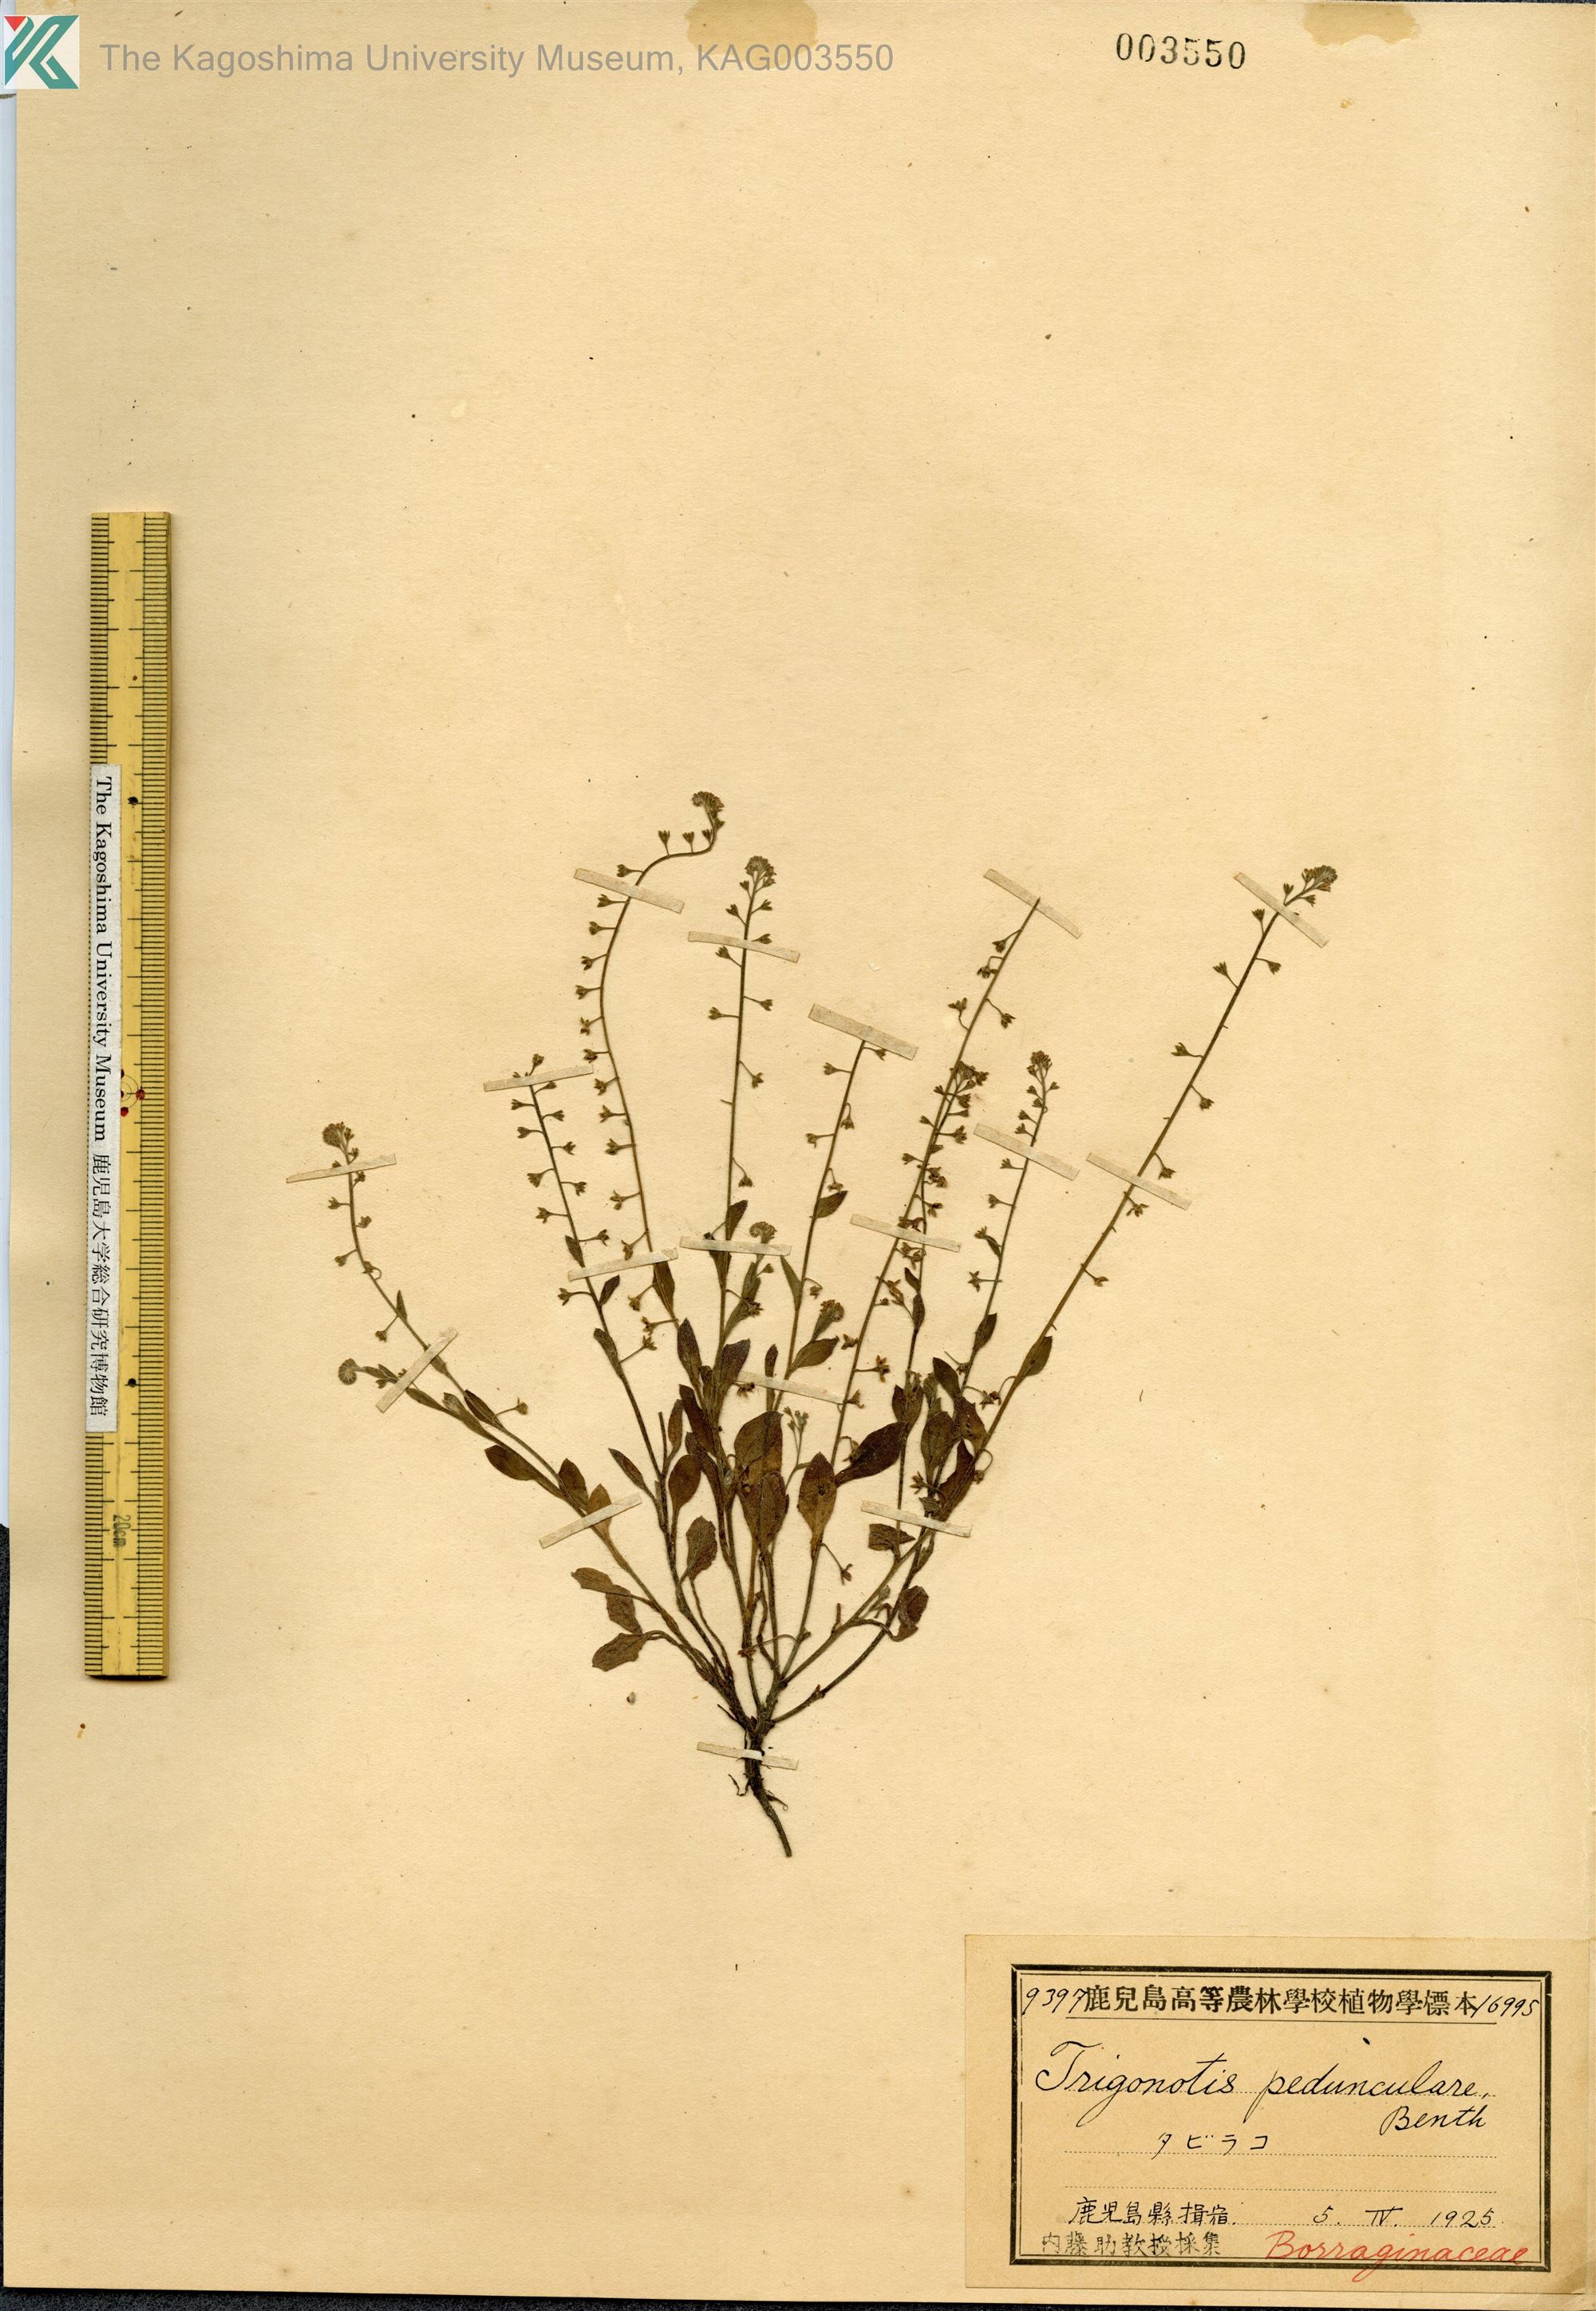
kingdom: Plantae
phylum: Tracheophyta
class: Magnoliopsida
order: Boraginales
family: Boraginaceae
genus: Trigonotis
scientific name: Trigonotis peduncularis
